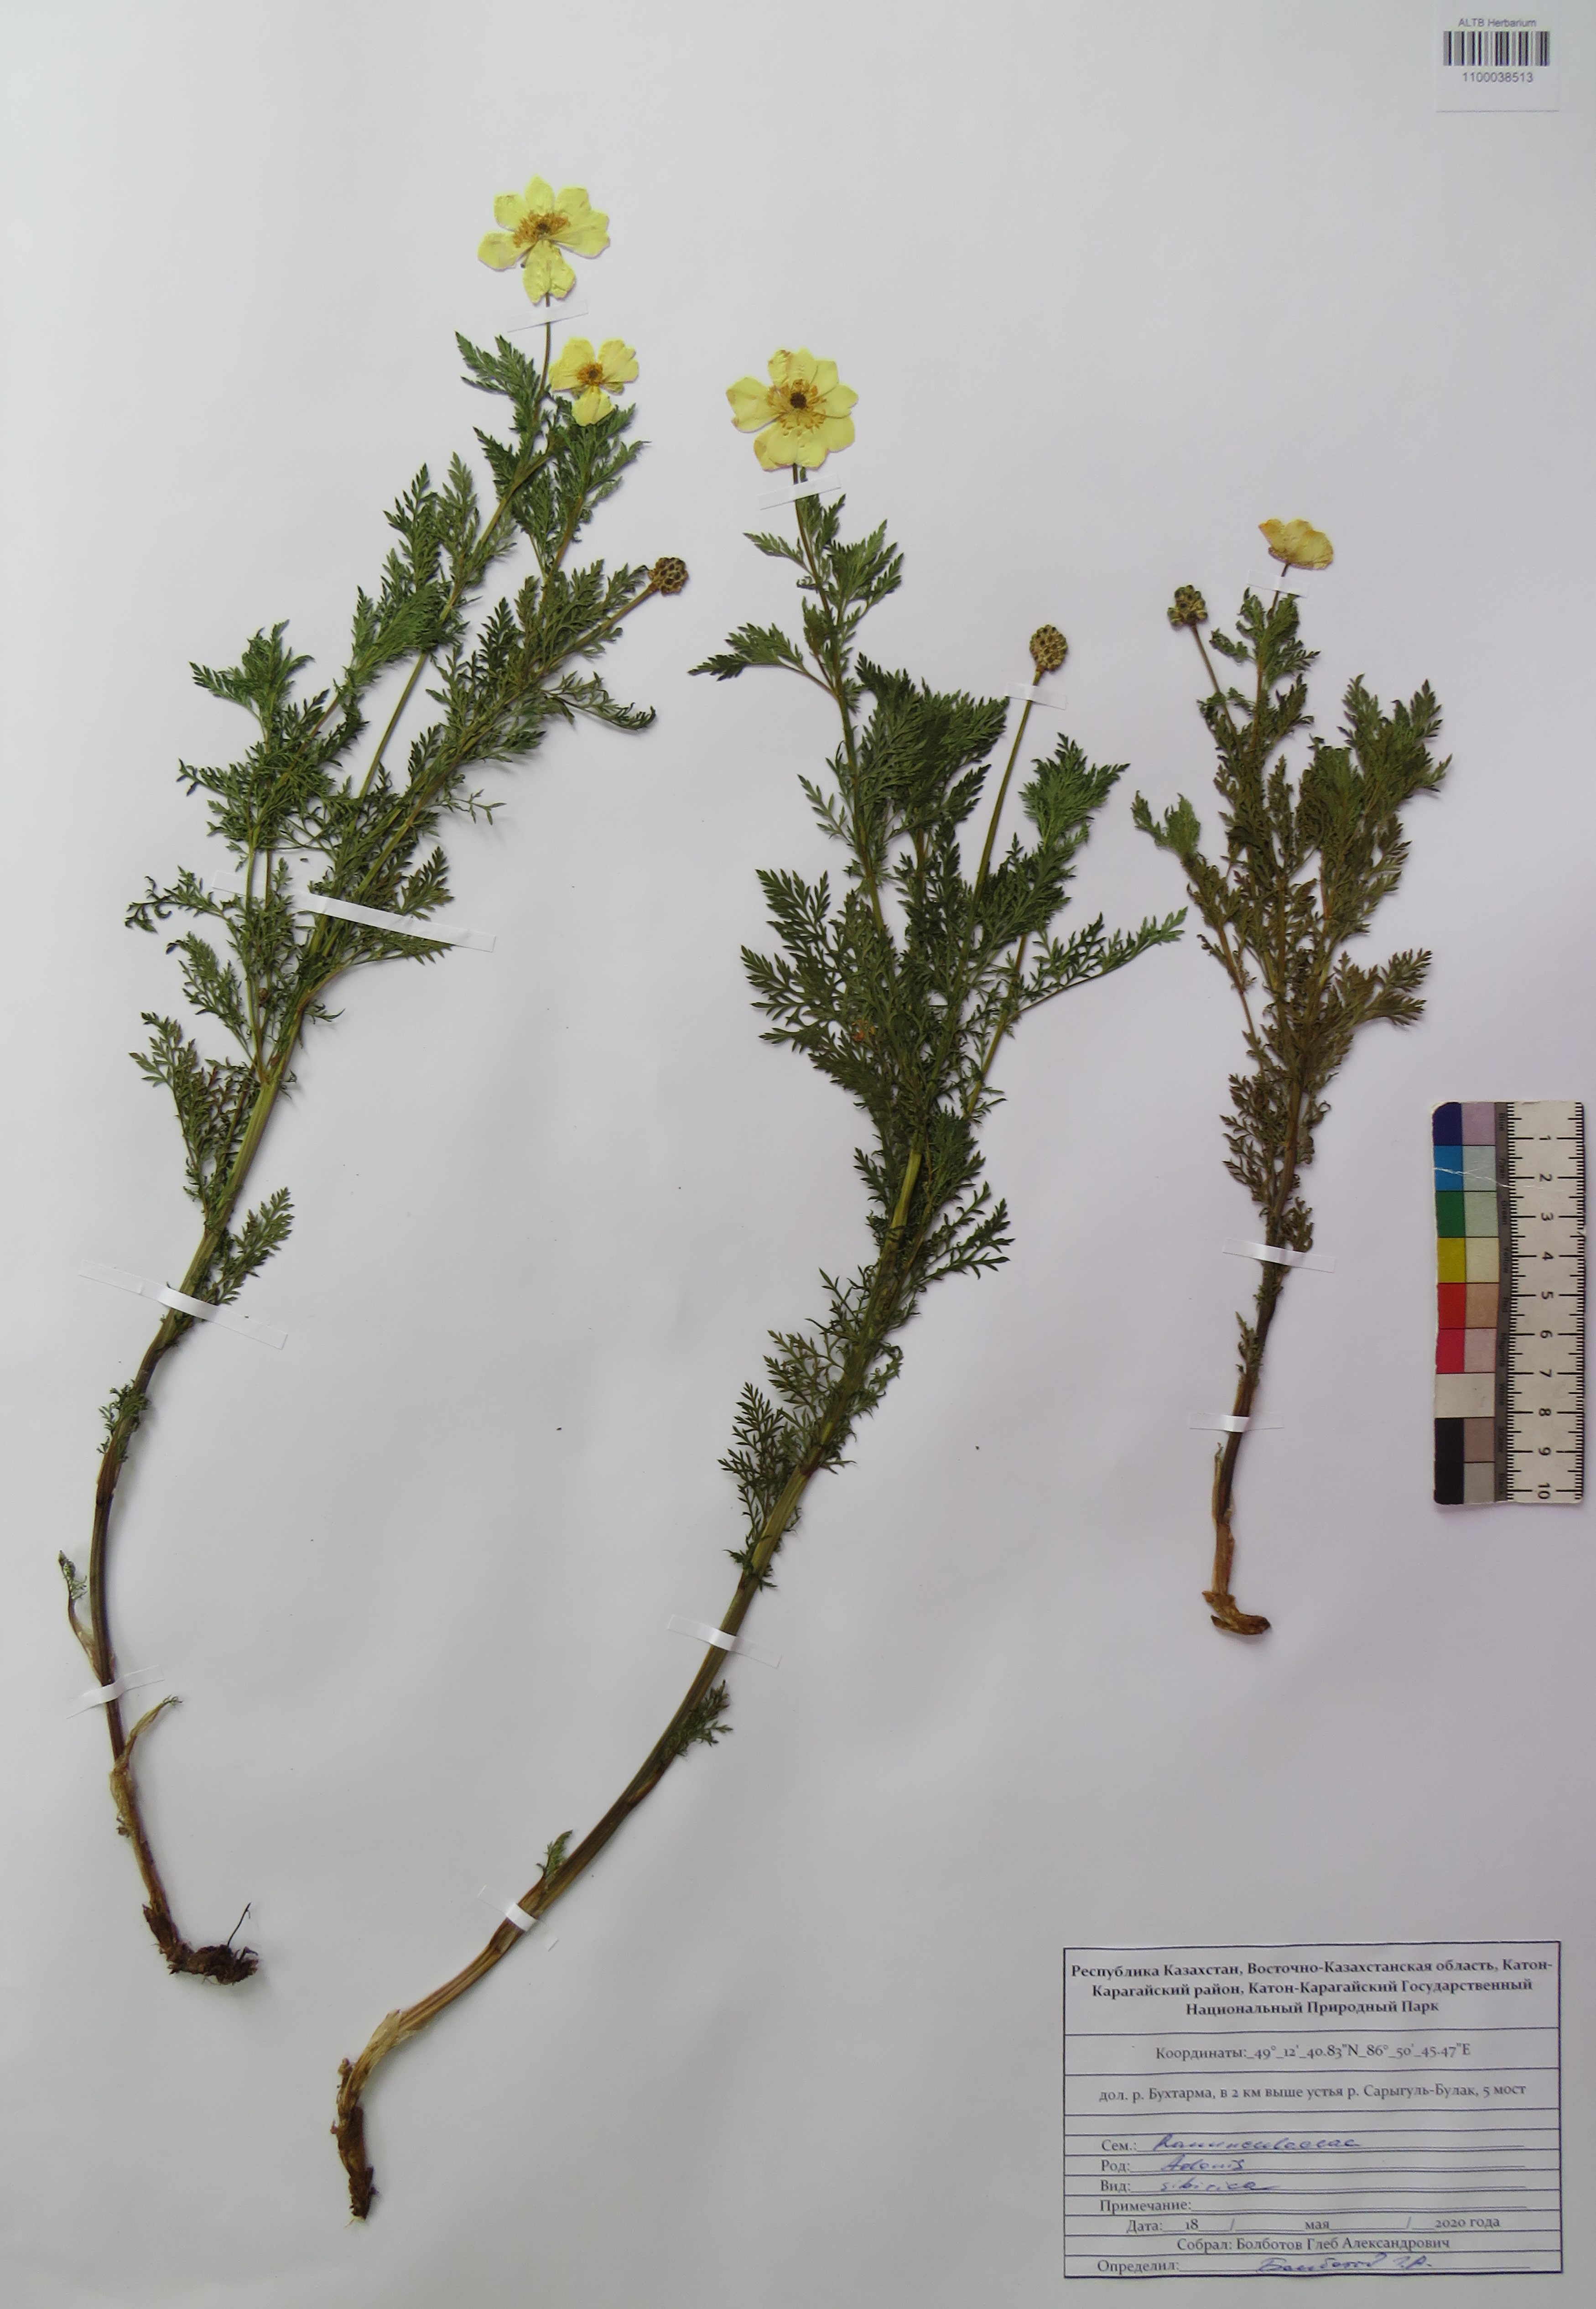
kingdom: Plantae
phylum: Tracheophyta
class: Magnoliopsida
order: Ranunculales
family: Ranunculaceae
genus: Adonis
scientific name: Adonis sibirica
